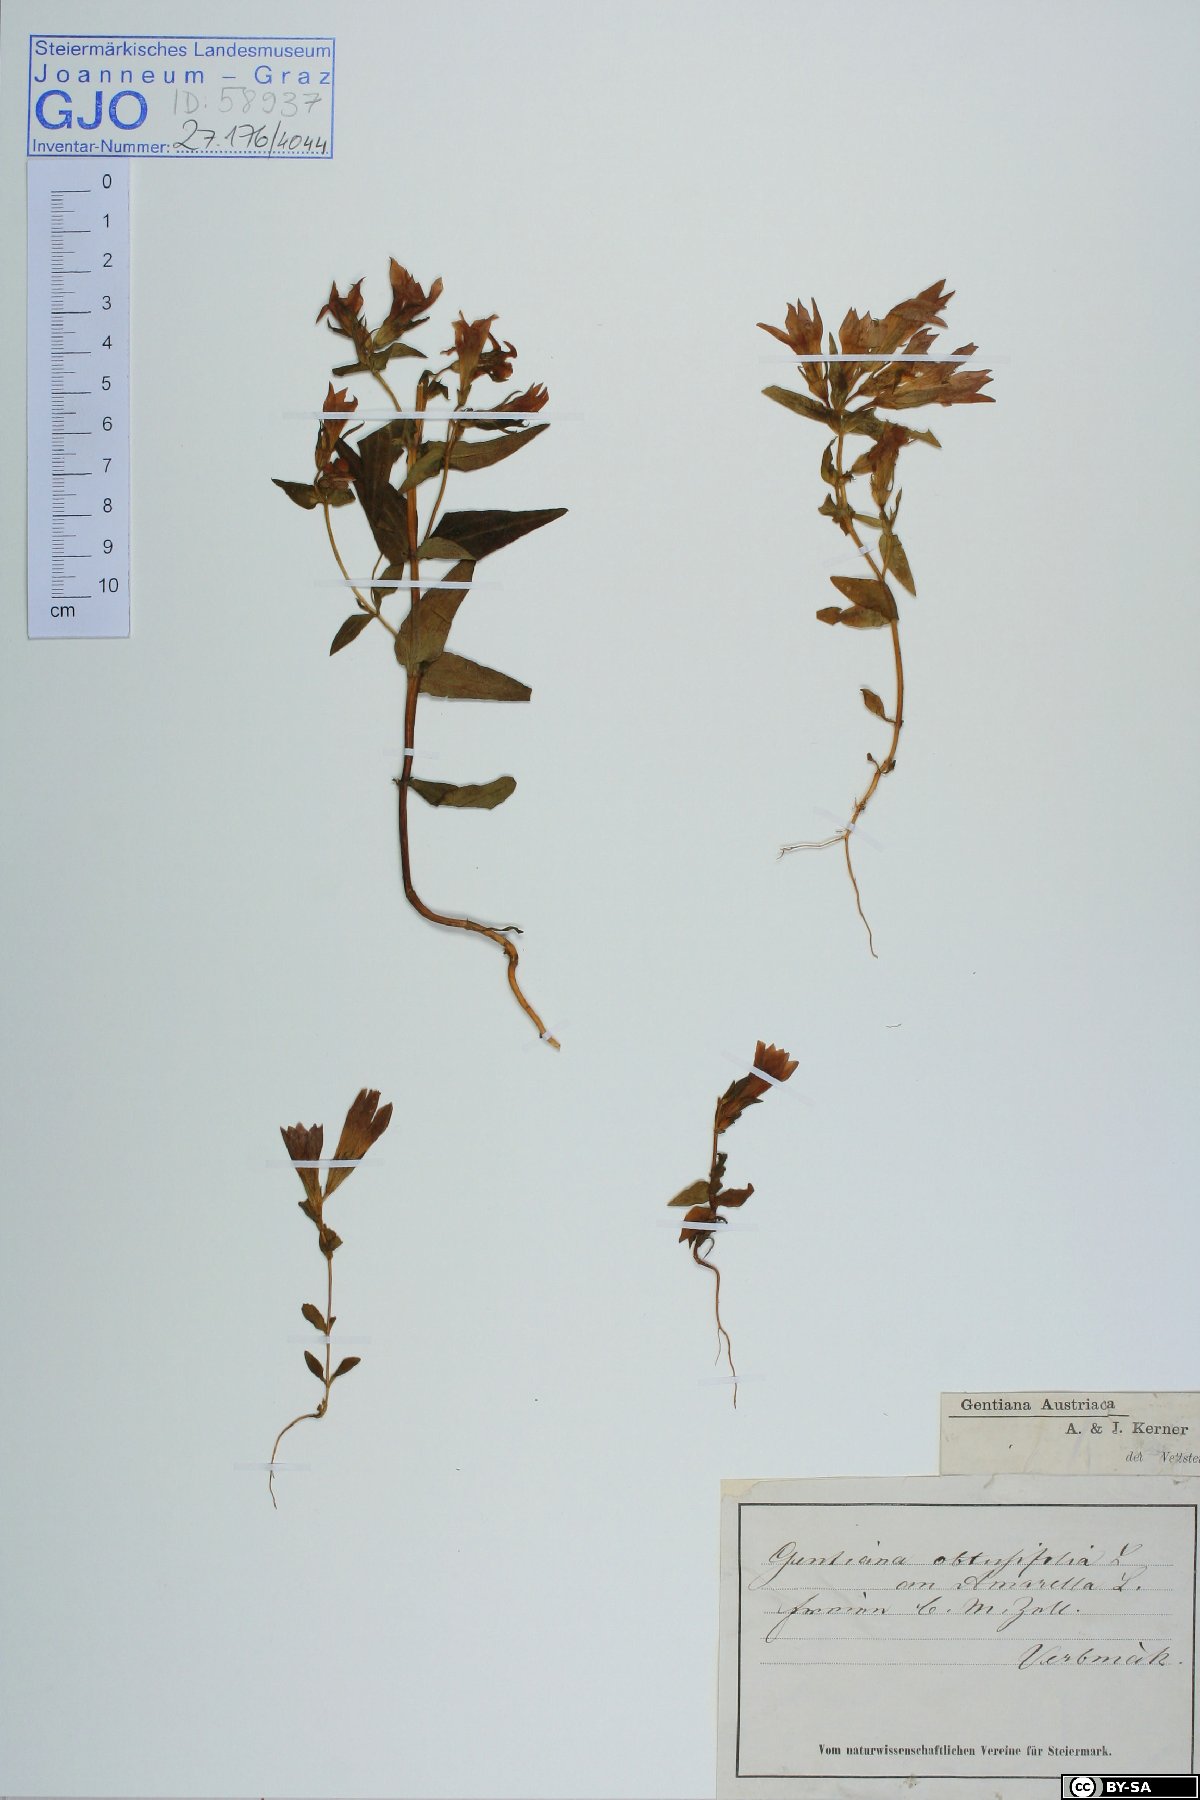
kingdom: Plantae
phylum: Tracheophyta
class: Magnoliopsida
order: Gentianales
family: Gentianaceae
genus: Gentianella
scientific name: Gentianella austriaca
